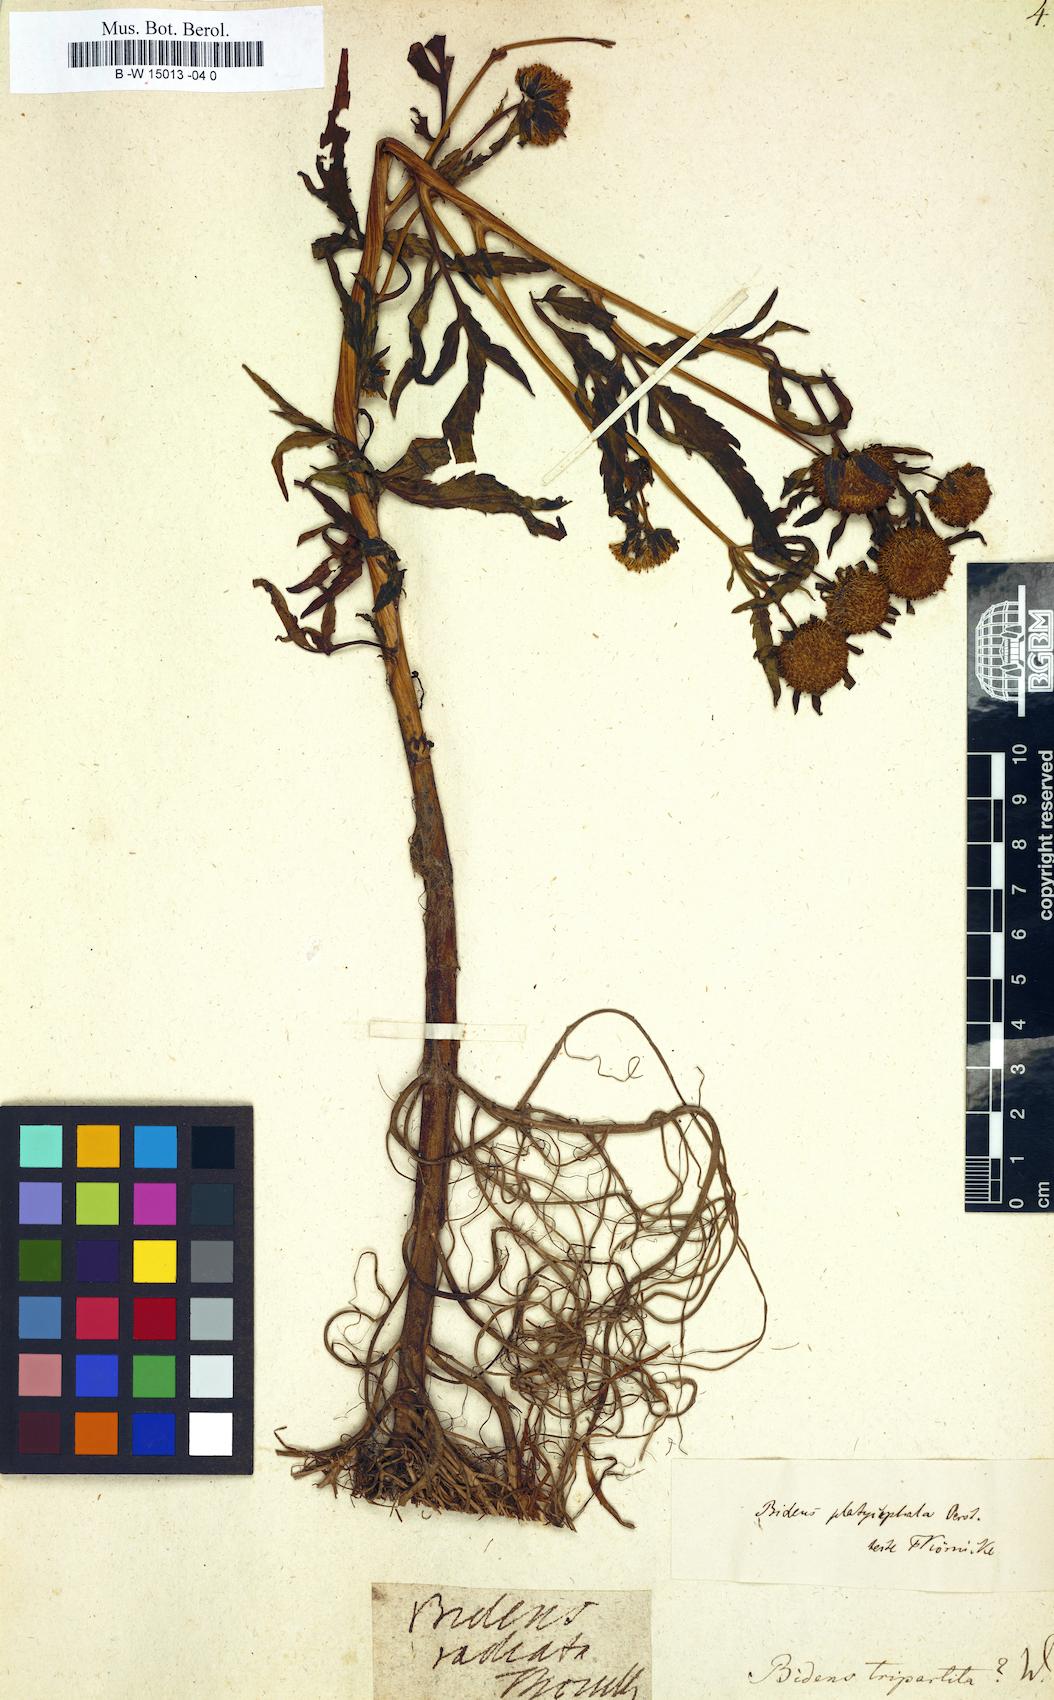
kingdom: Plantae
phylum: Tracheophyta
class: Magnoliopsida
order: Asterales
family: Asteraceae
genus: Bidens
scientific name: Bidens tripartita
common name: Trifid bur-marigold
